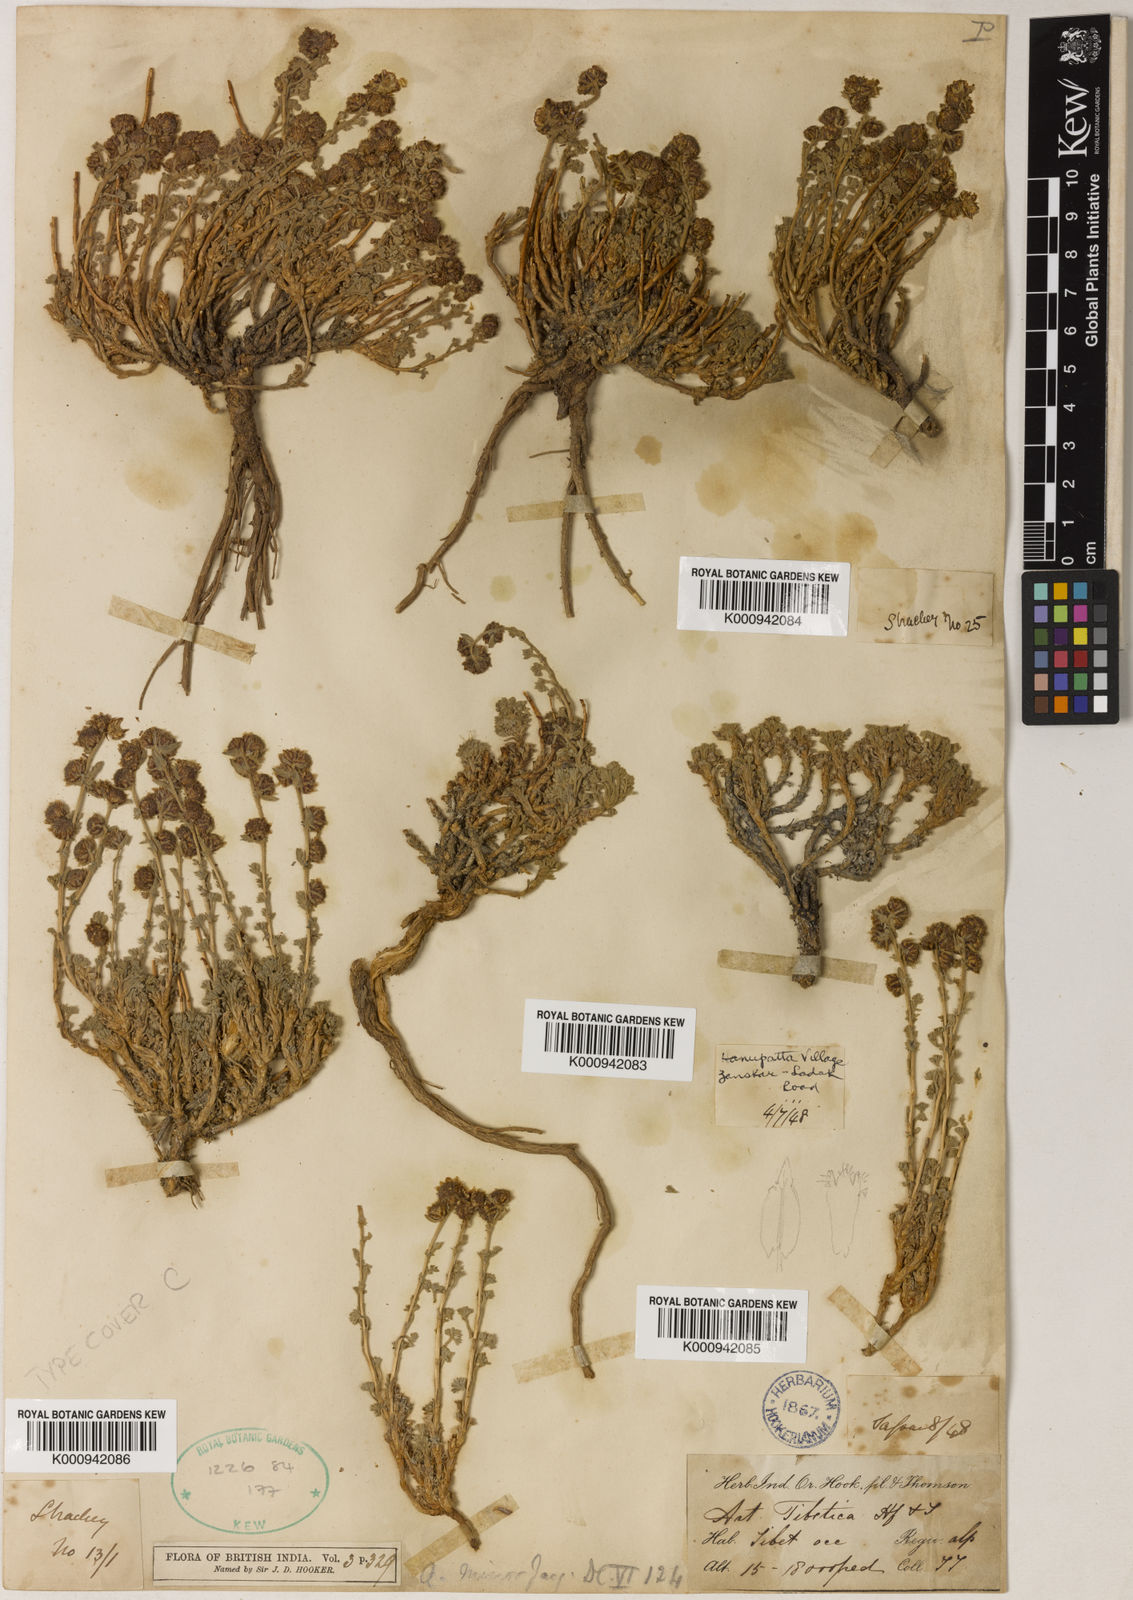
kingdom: Plantae
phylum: Tracheophyta
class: Magnoliopsida
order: Asterales
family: Asteraceae
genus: Artemisia
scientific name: Artemisia minor
